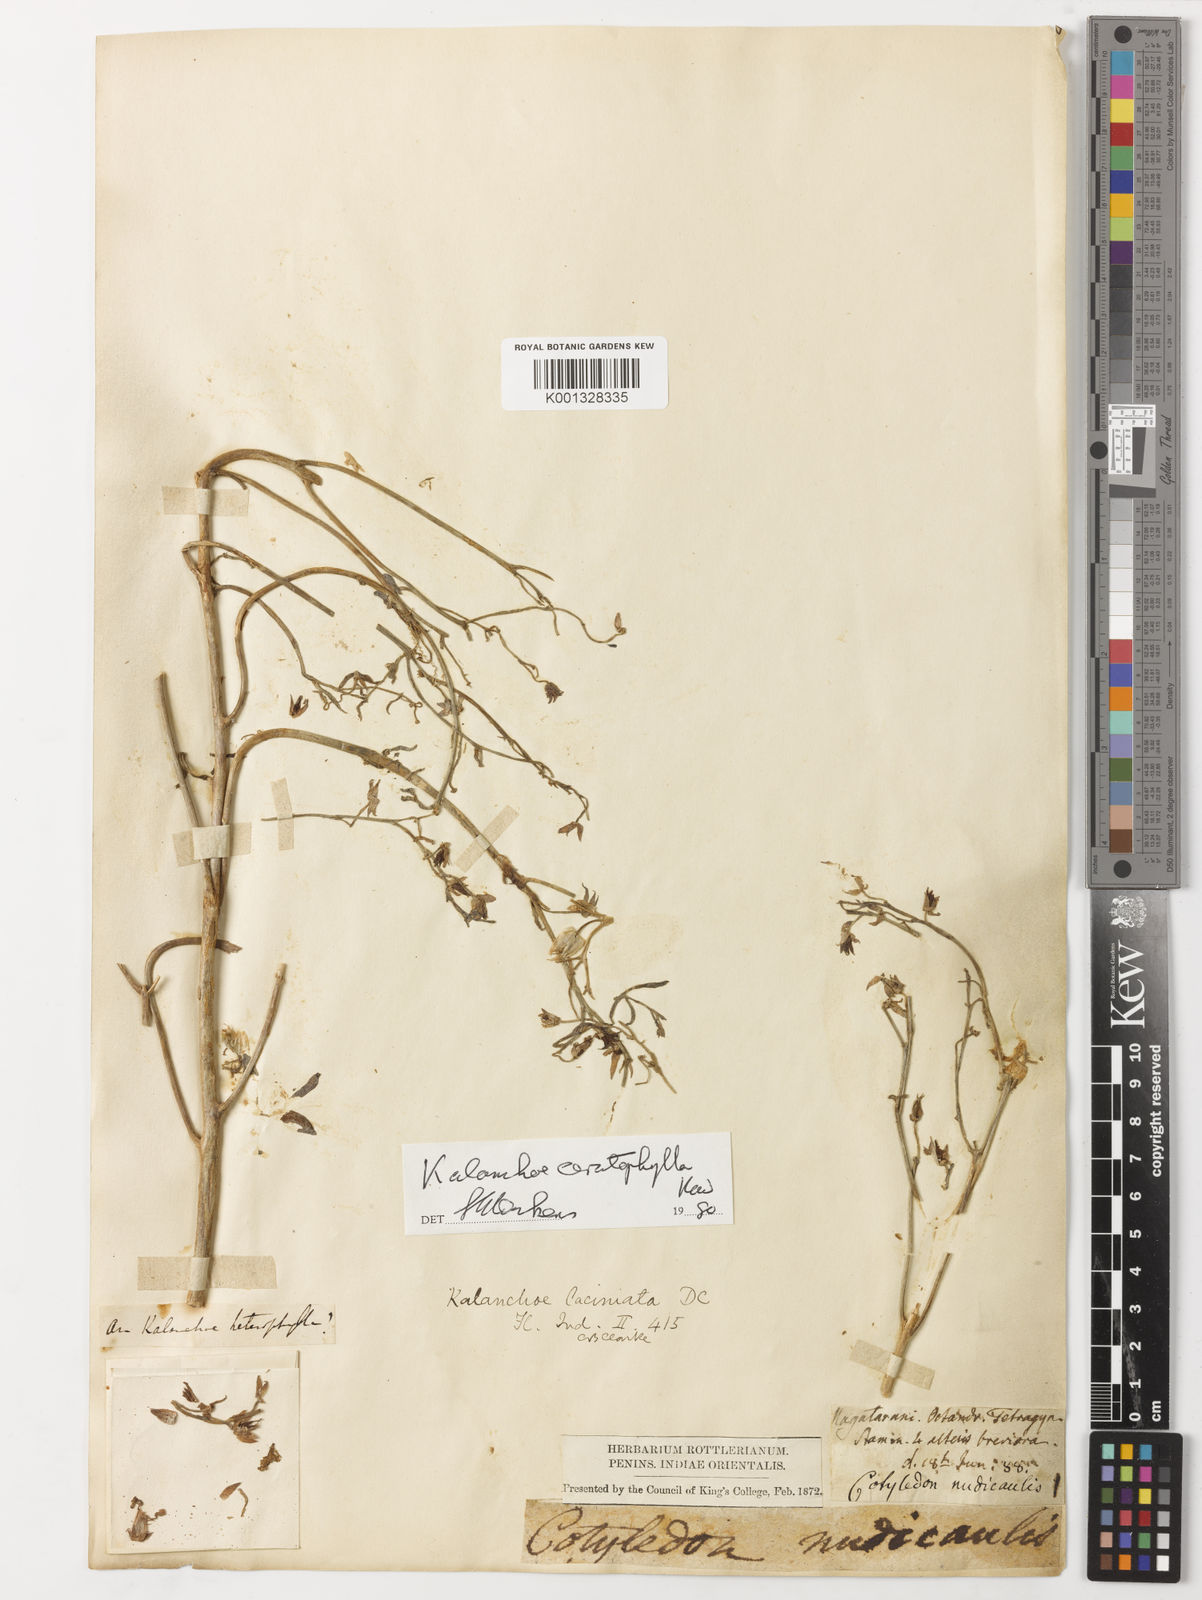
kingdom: Plantae
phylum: Tracheophyta
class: Magnoliopsida
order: Saxifragales
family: Crassulaceae
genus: Kalanchoe
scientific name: Kalanchoe laciniata
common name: Christmastree plant
